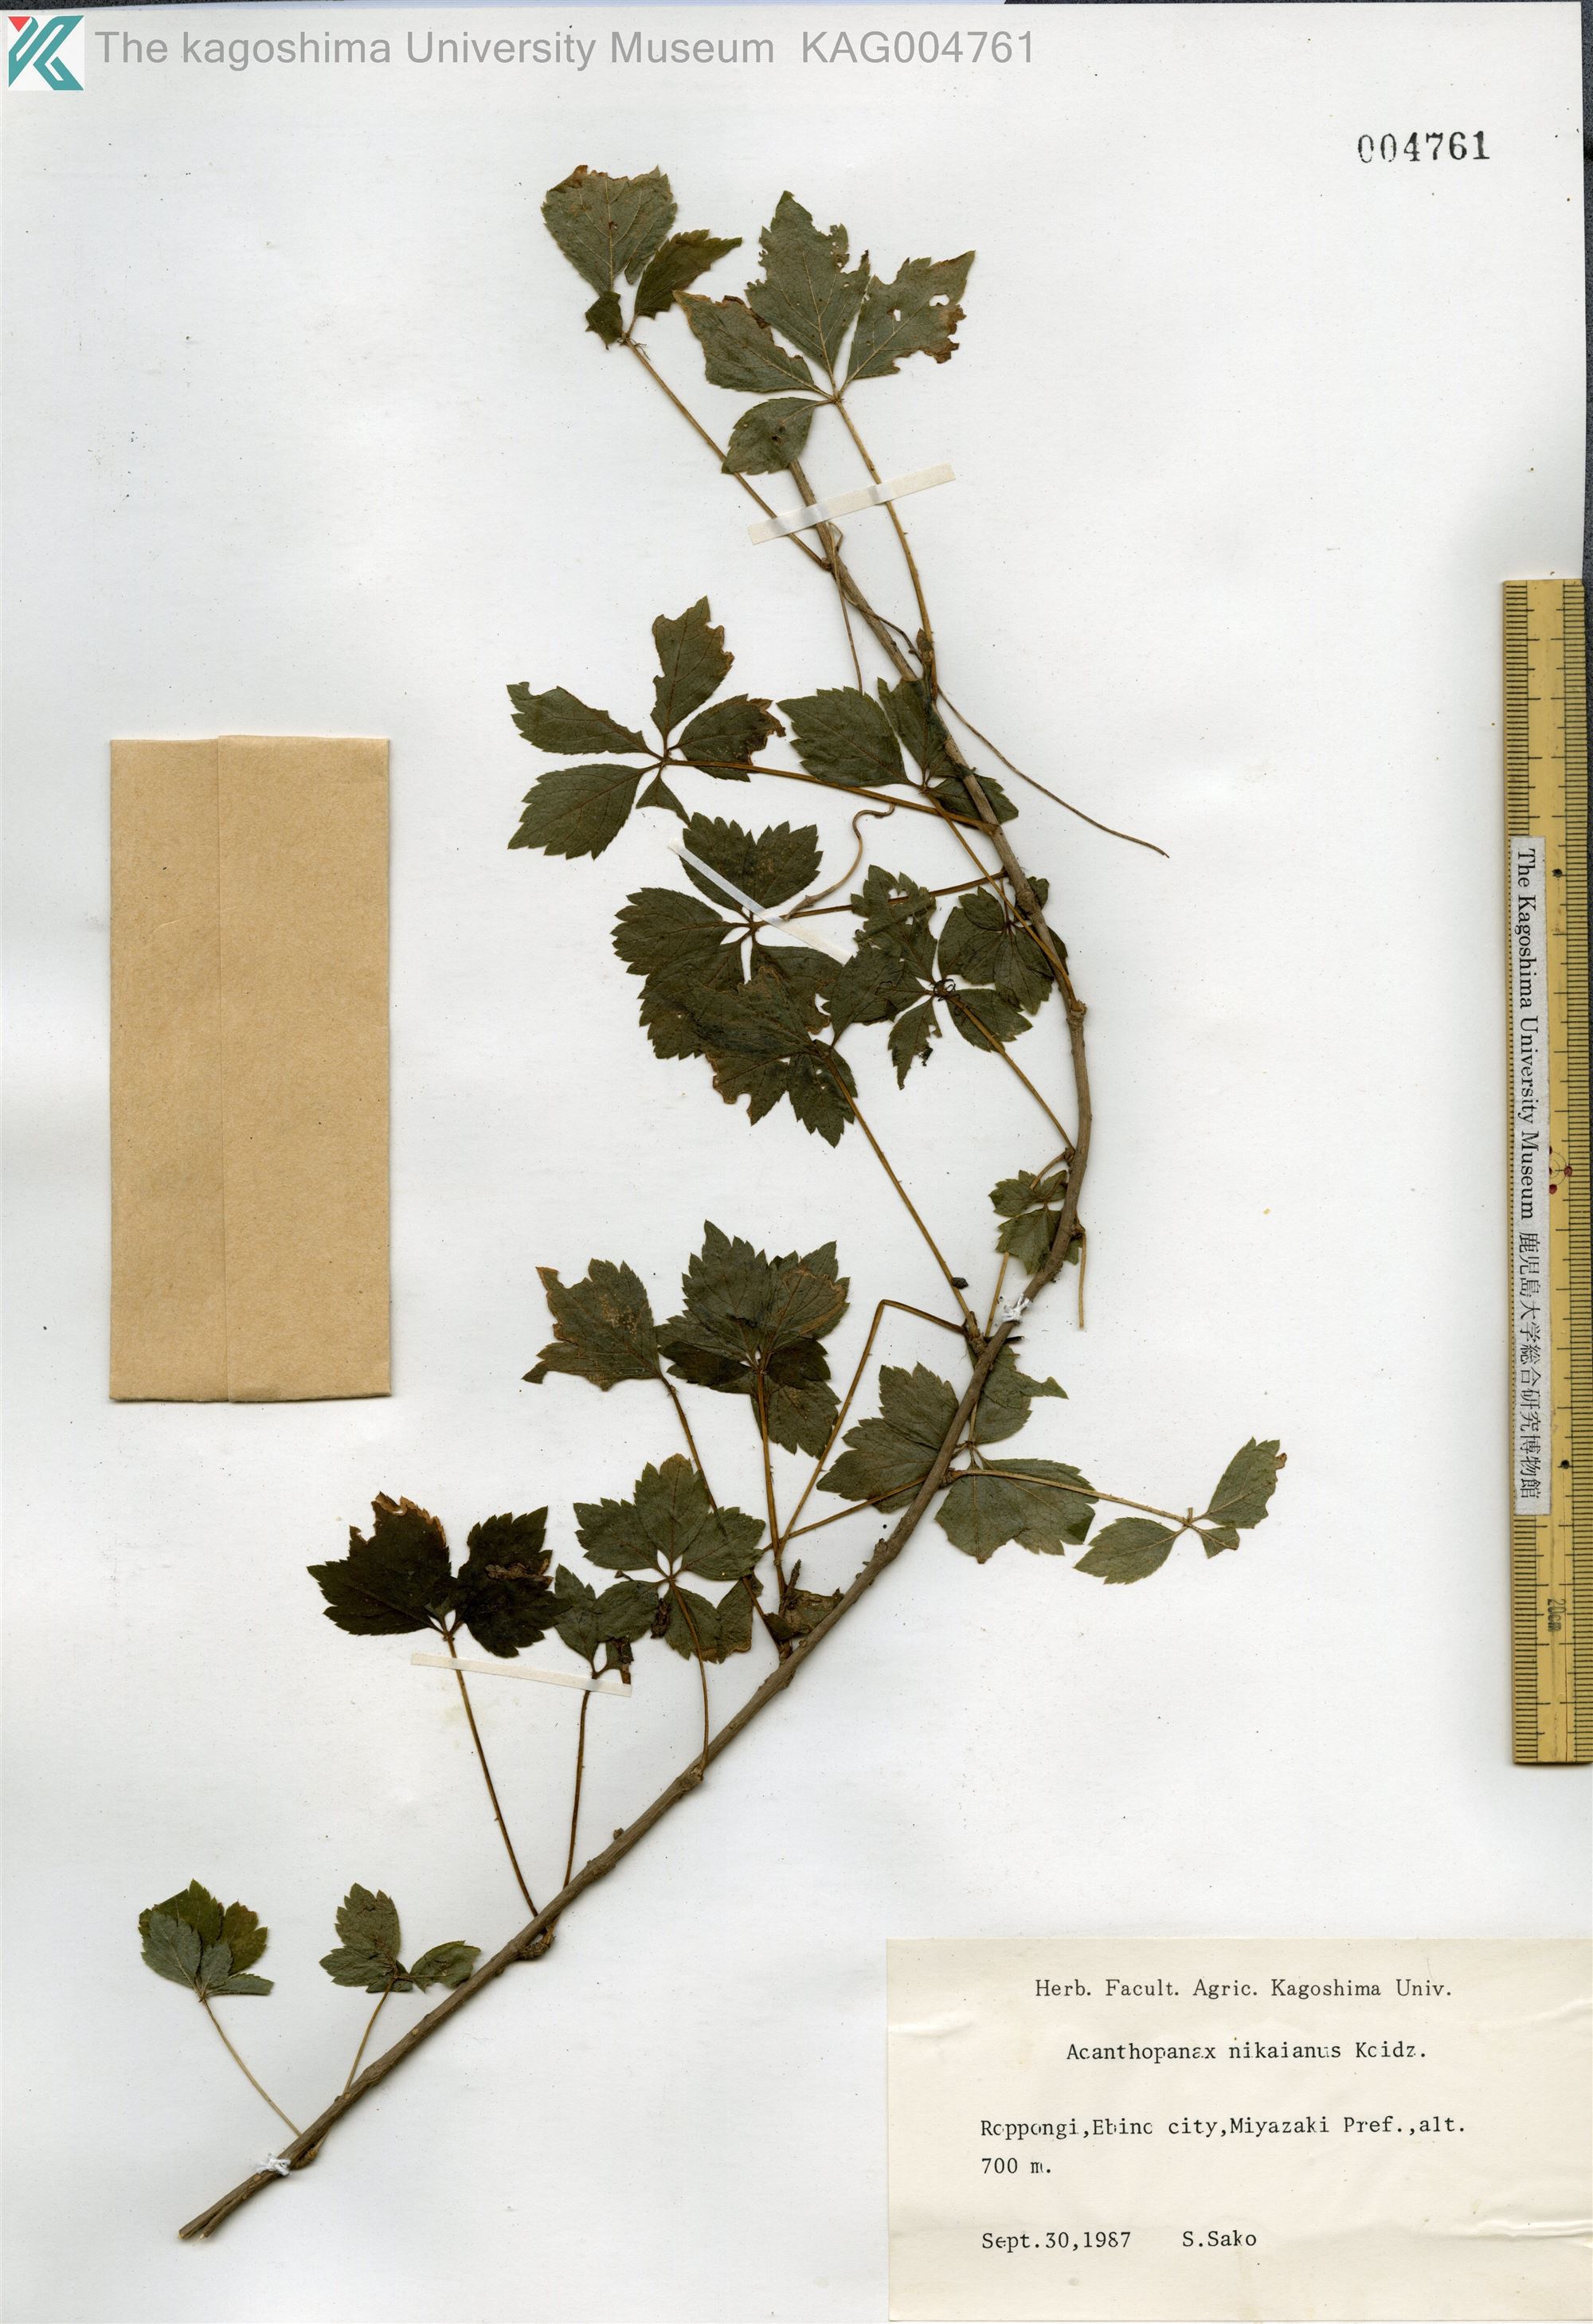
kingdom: Plantae
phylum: Tracheophyta
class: Magnoliopsida
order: Apiales
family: Araliaceae
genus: Eleutherococcus
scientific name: Eleutherococcus japonicus
